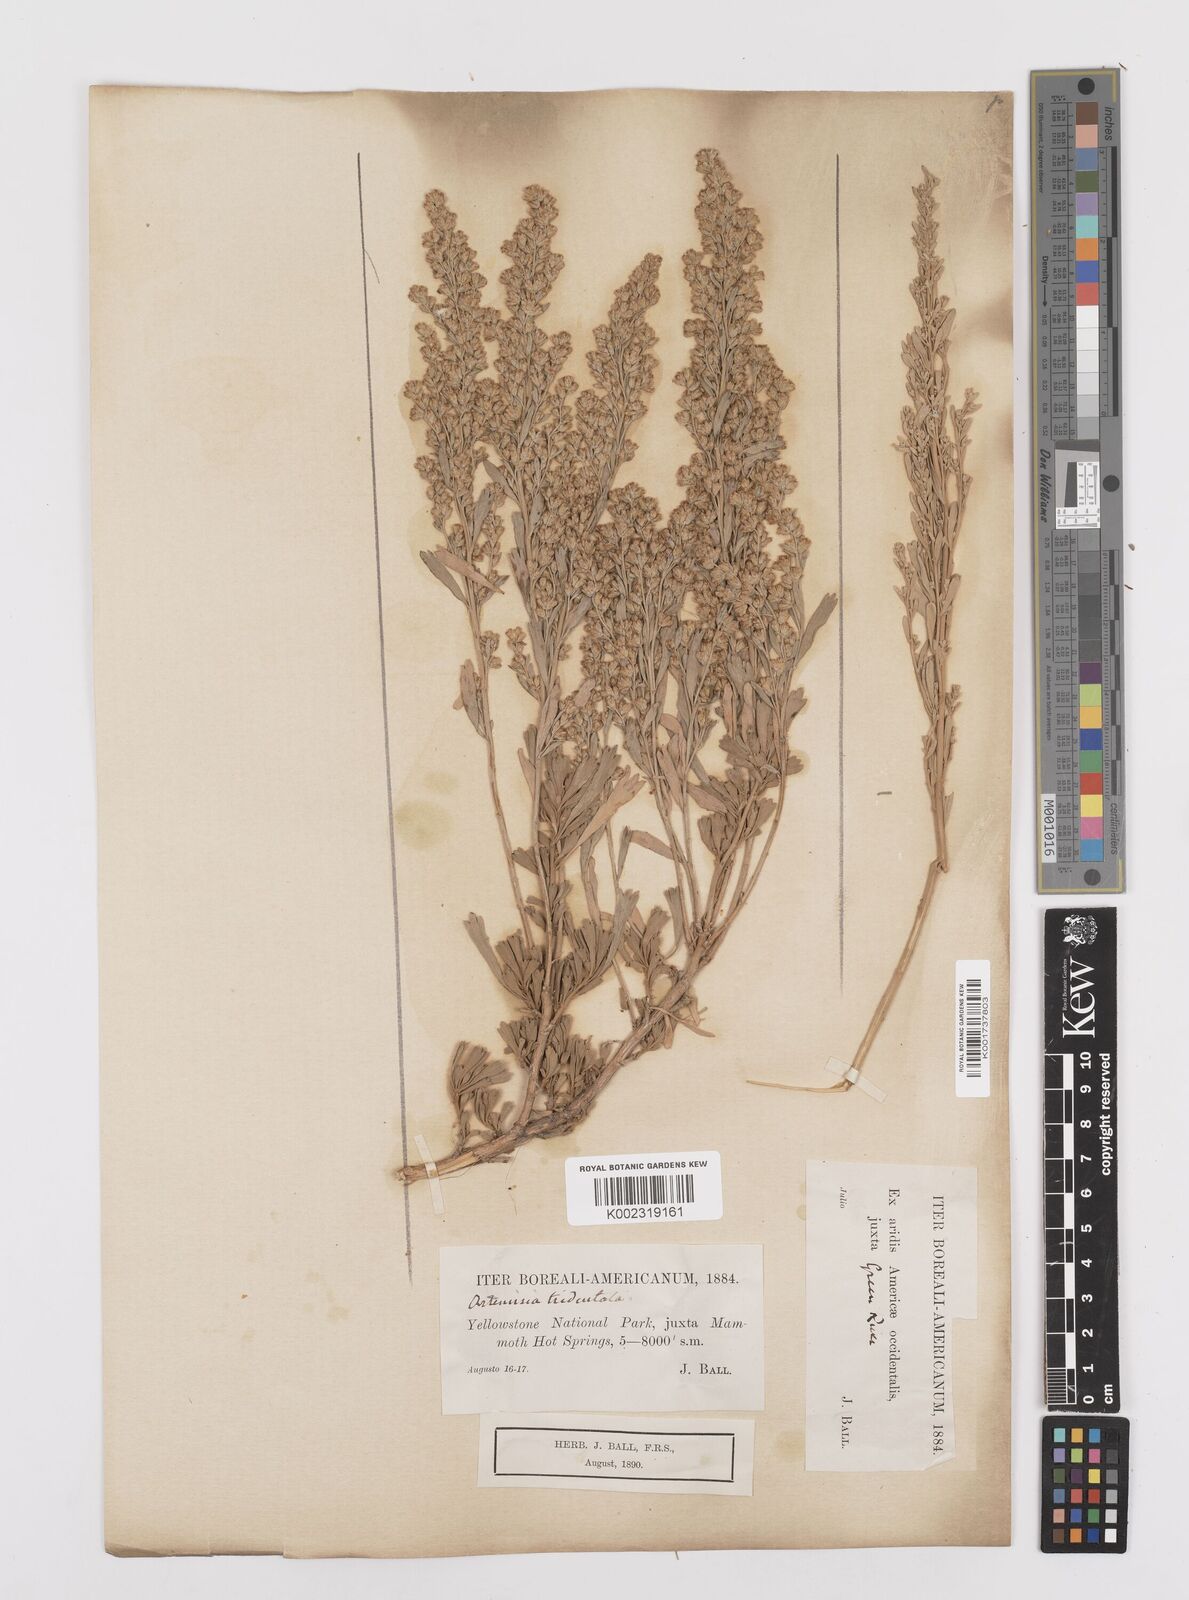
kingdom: Plantae
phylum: Tracheophyta
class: Magnoliopsida
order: Asterales
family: Asteraceae
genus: Artemisia
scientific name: Artemisia tridentata
